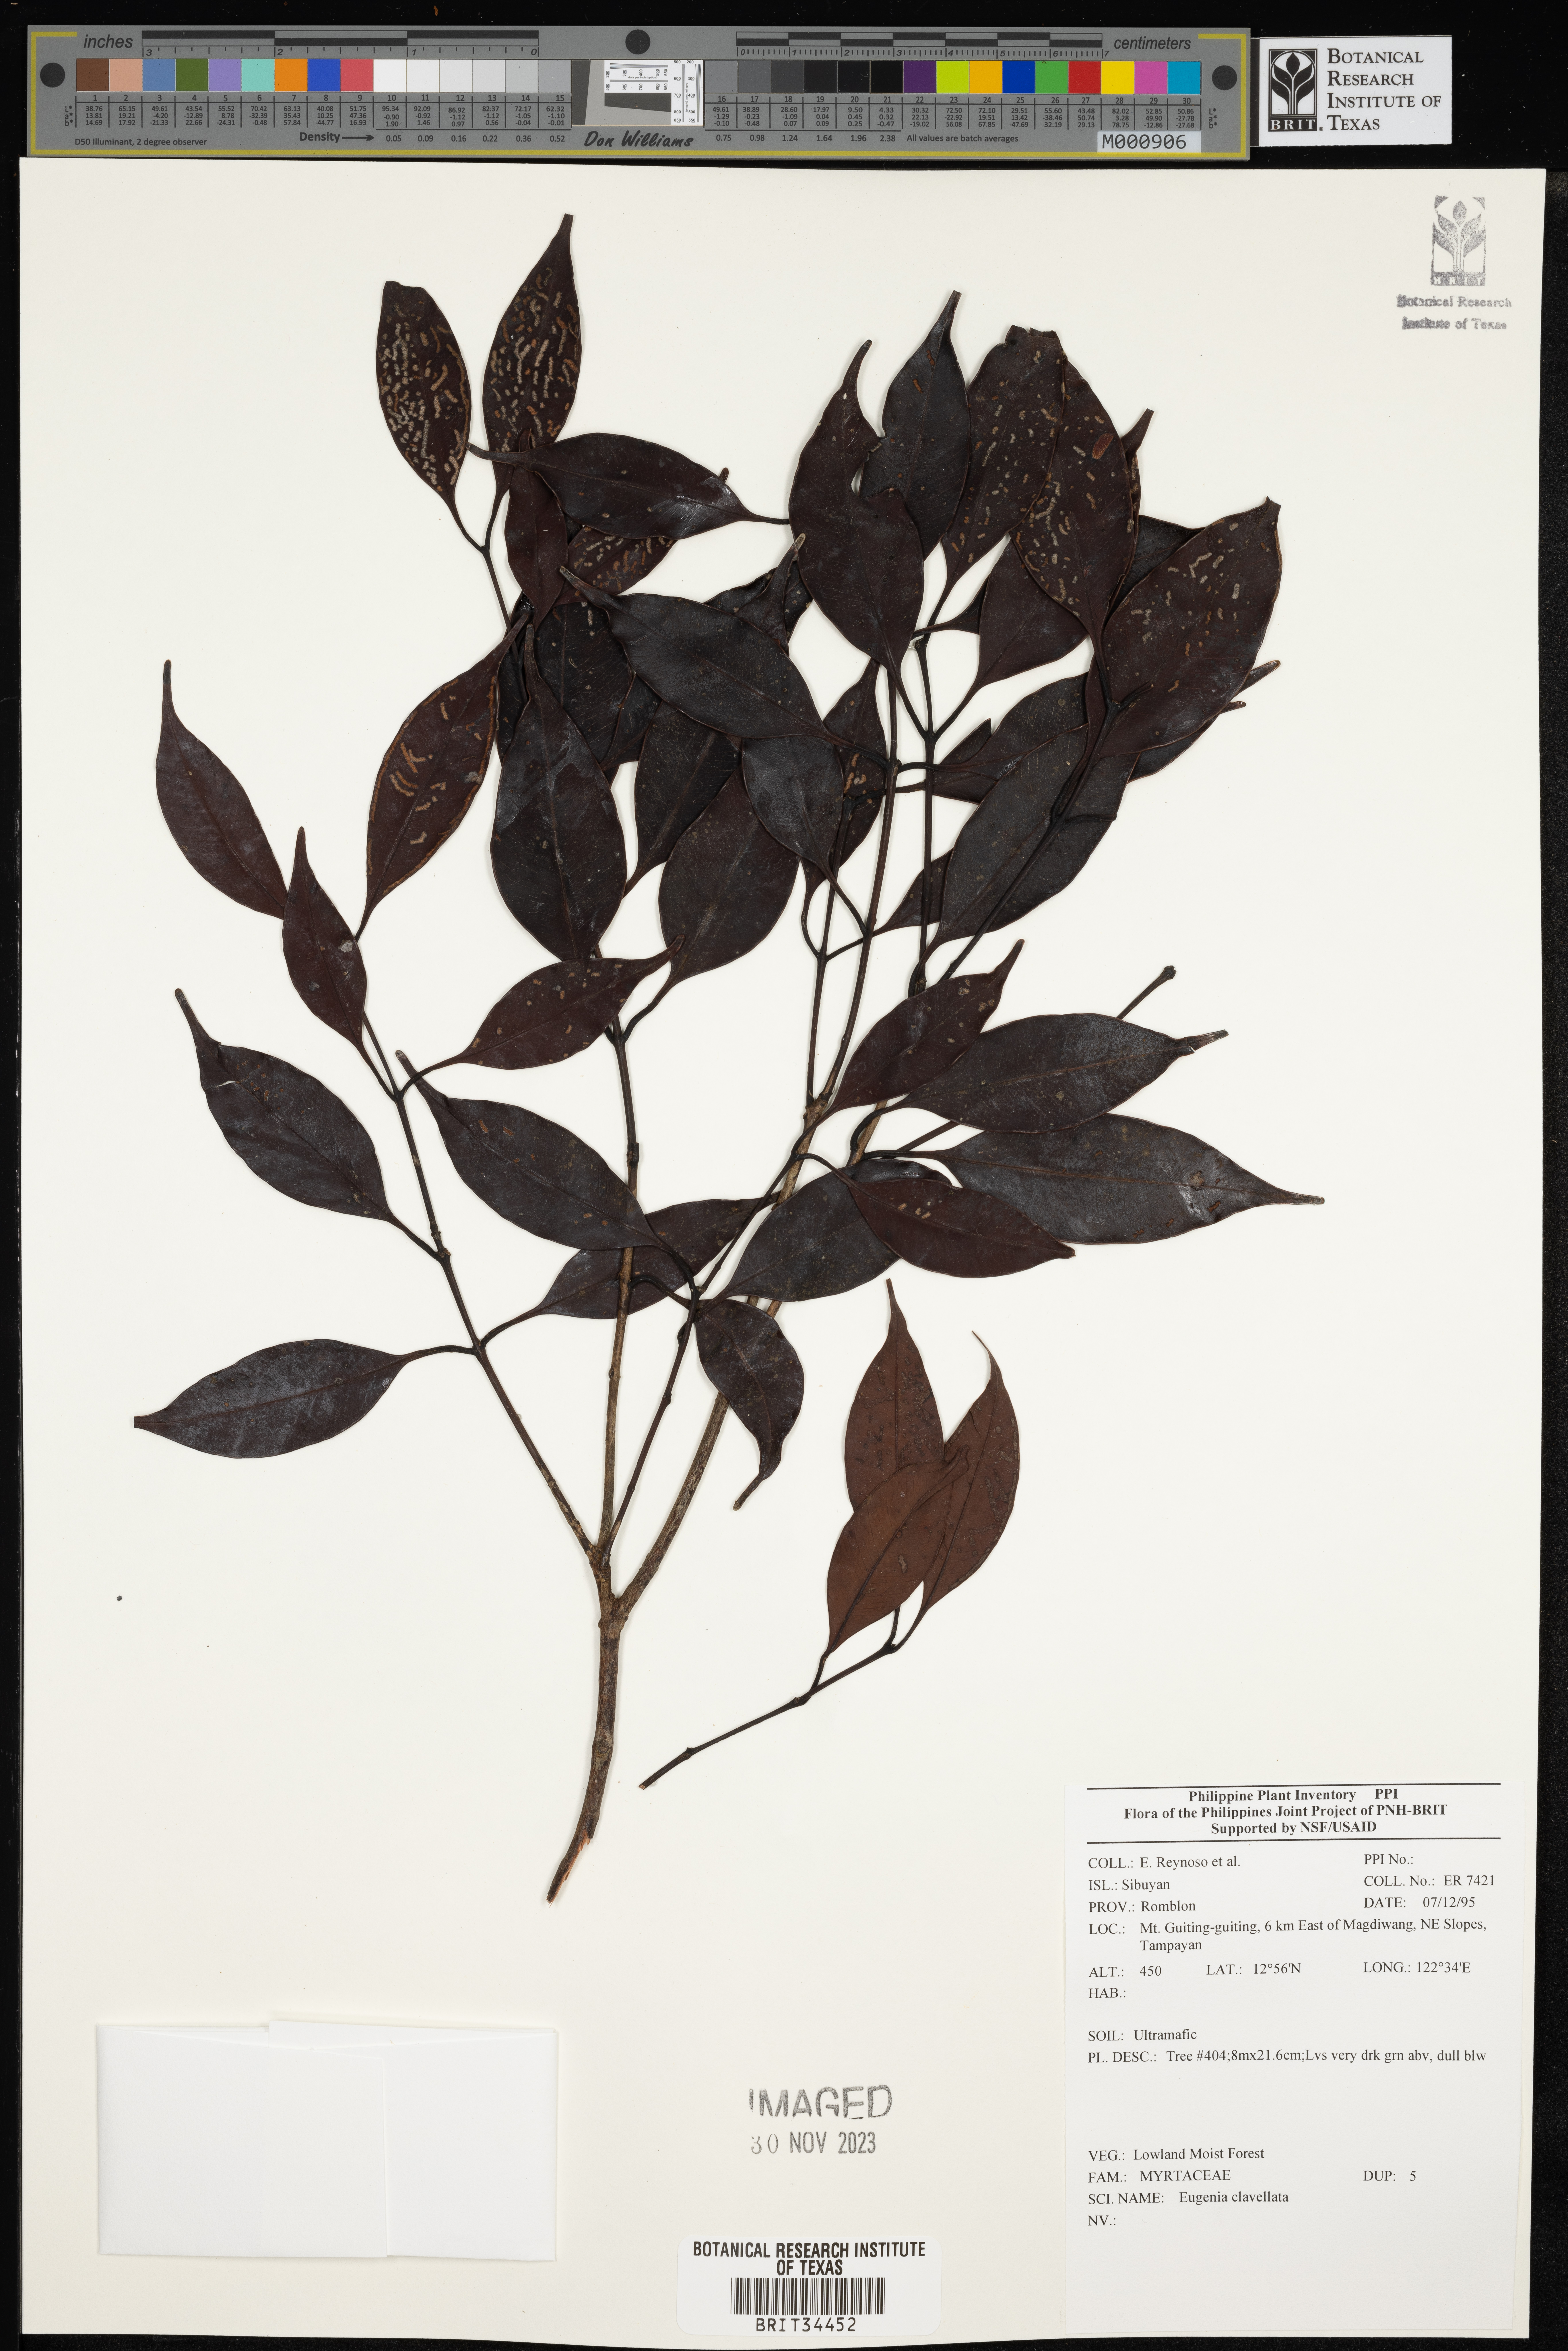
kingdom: Plantae
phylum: Tracheophyta
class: Magnoliopsida
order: Myrtales
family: Myrtaceae
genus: Eugenia
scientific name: Eugenia
